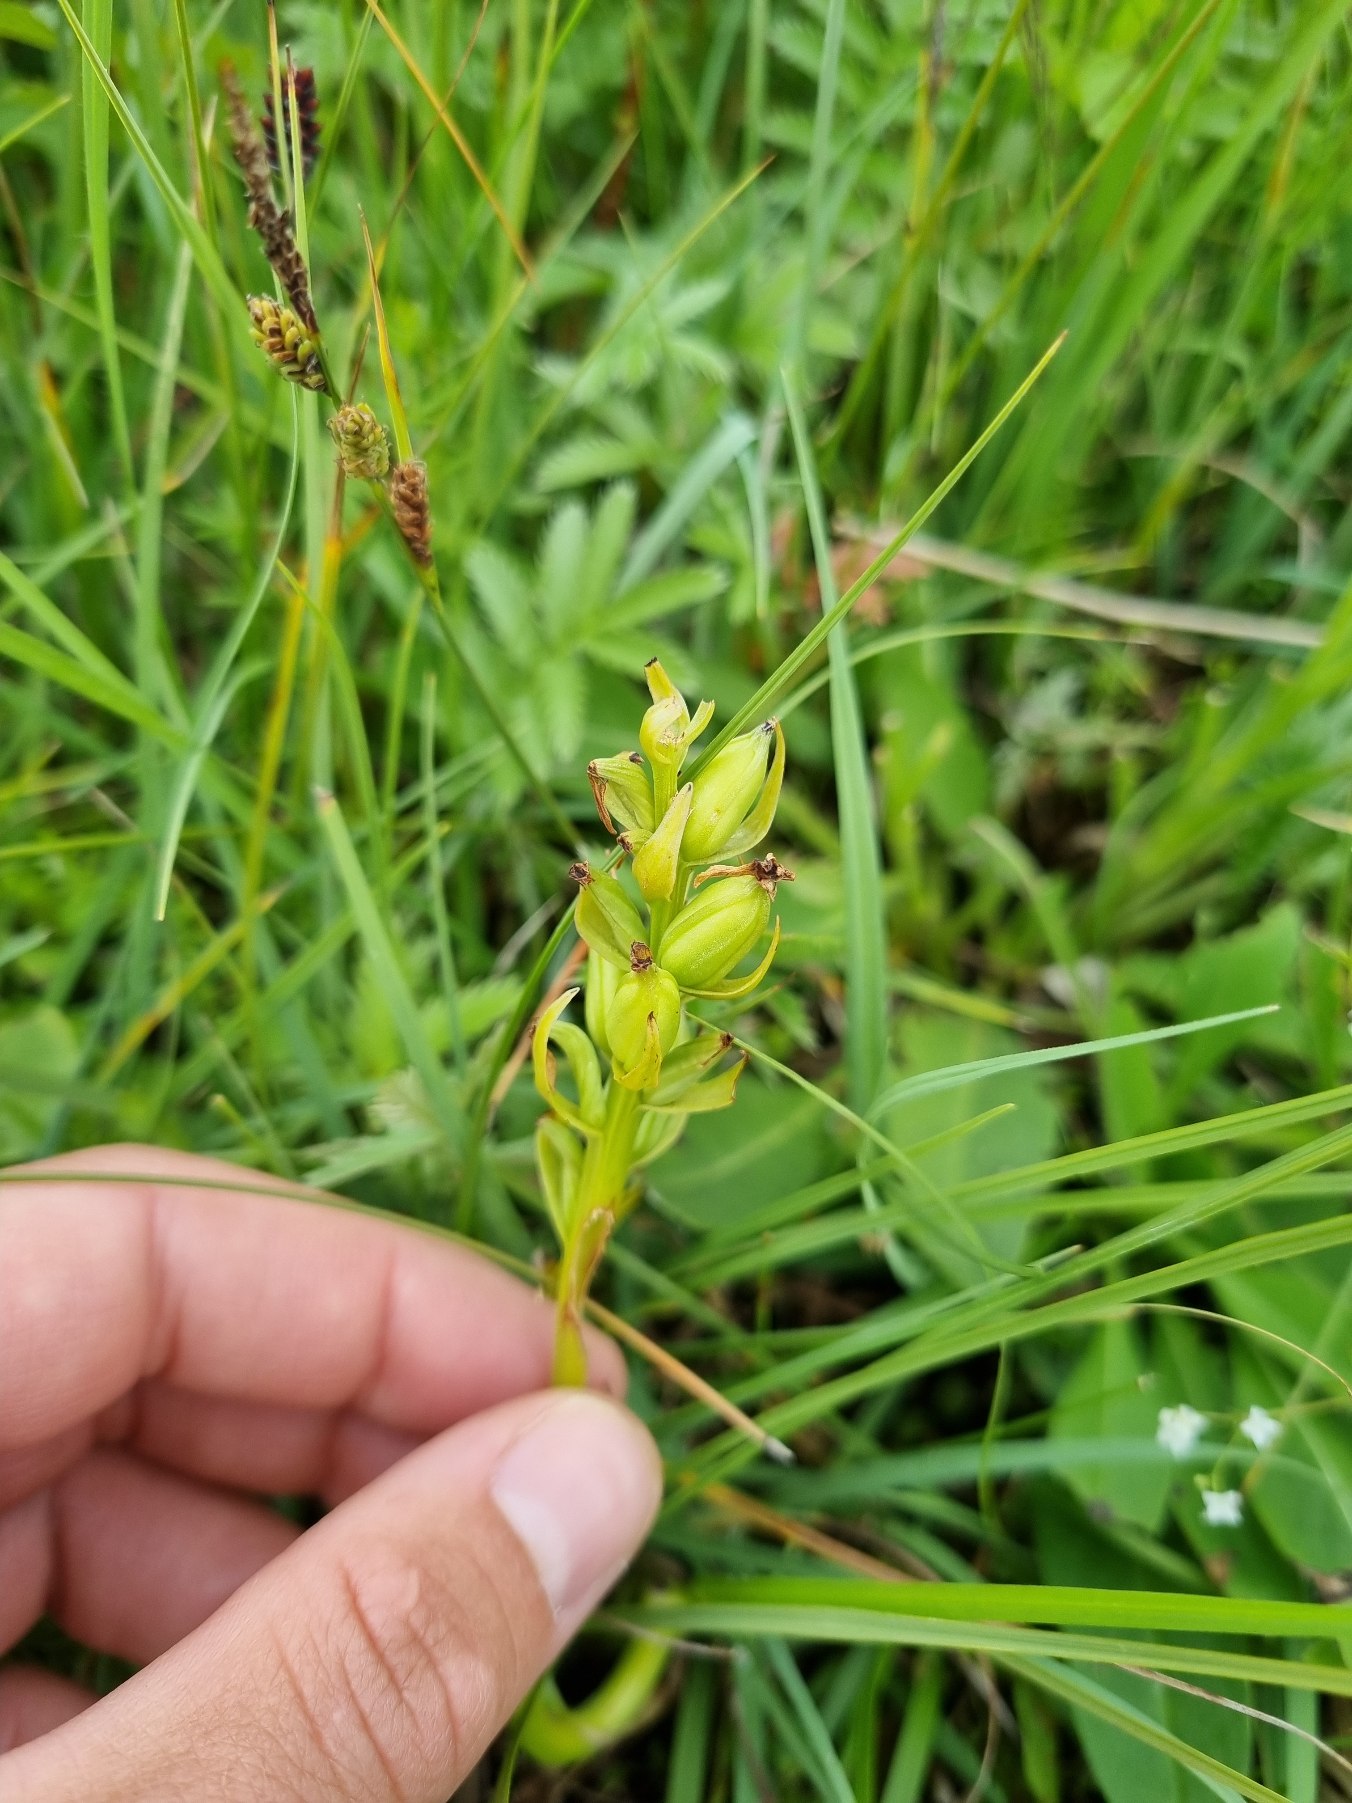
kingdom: Plantae
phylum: Tracheophyta
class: Liliopsida
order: Asparagales
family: Orchidaceae
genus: Dactylorhiza
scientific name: Dactylorhiza
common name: Gøgeurt (Dactylorhiza-slægten)
